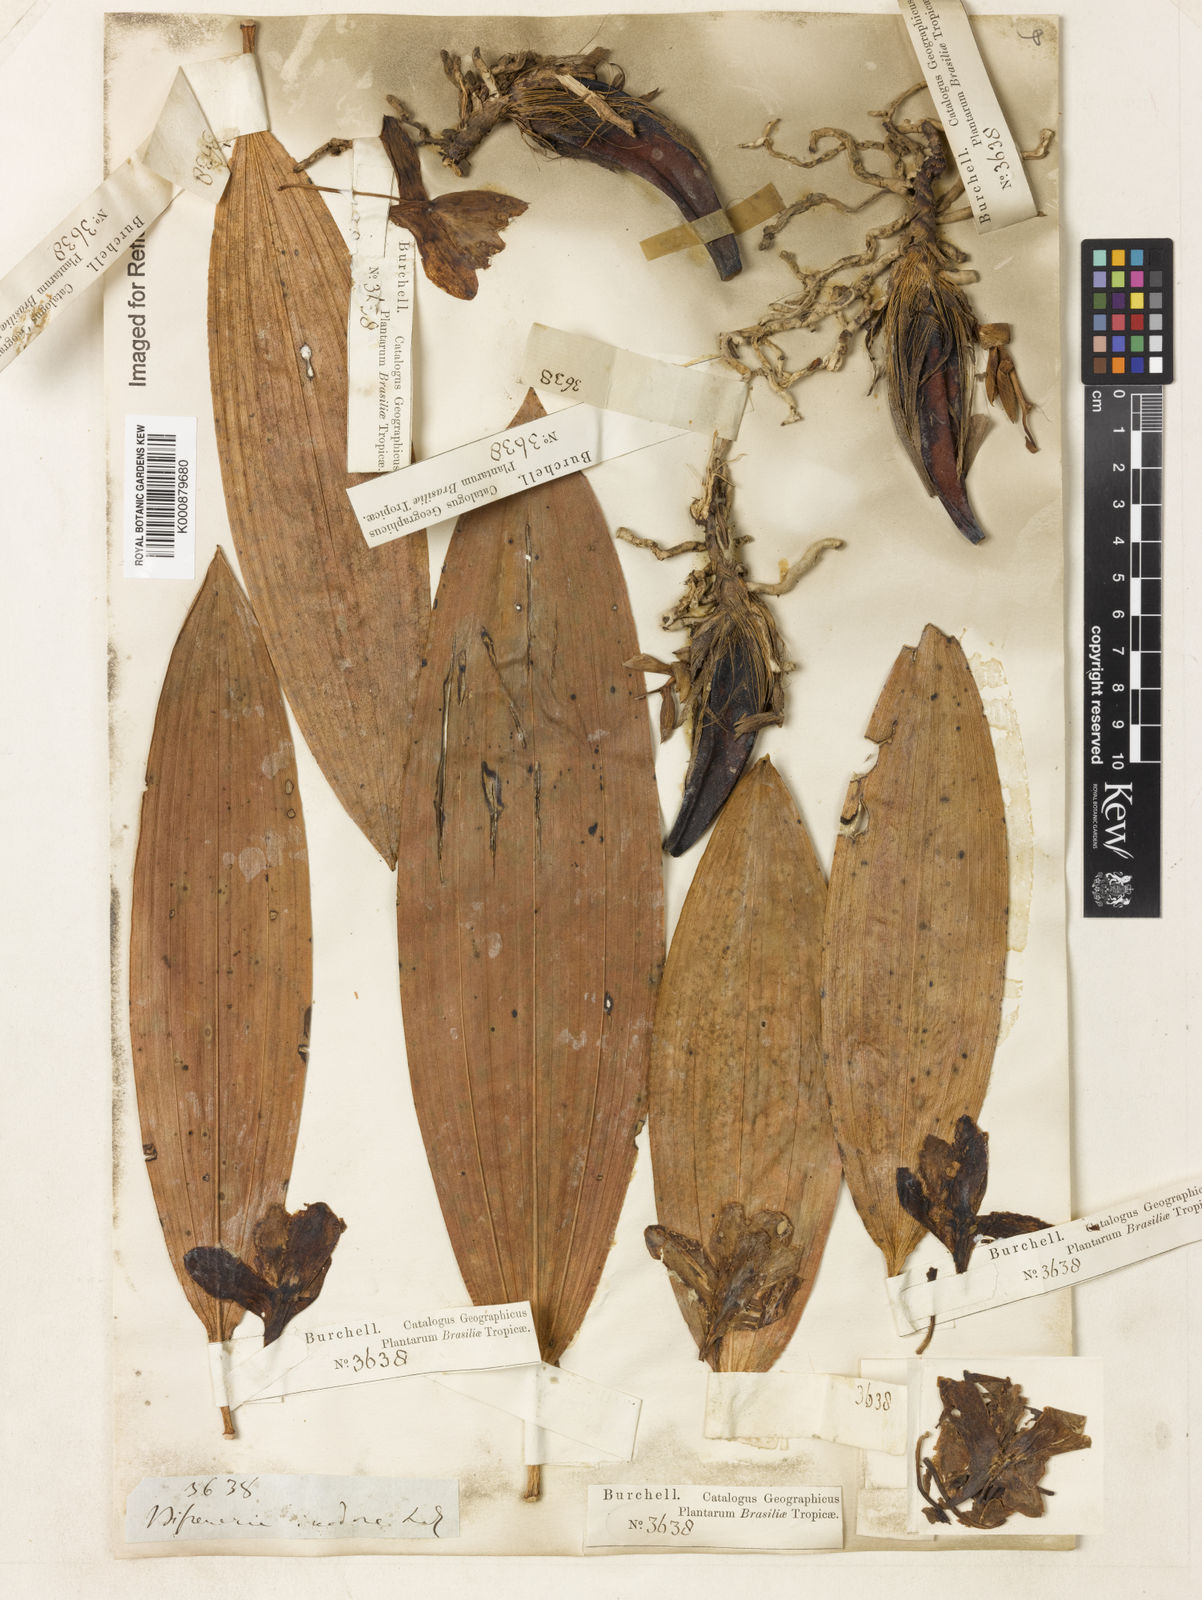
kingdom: Plantae
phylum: Tracheophyta
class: Liliopsida
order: Asparagales
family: Orchidaceae
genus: Bifrenaria
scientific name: Bifrenaria inodora
